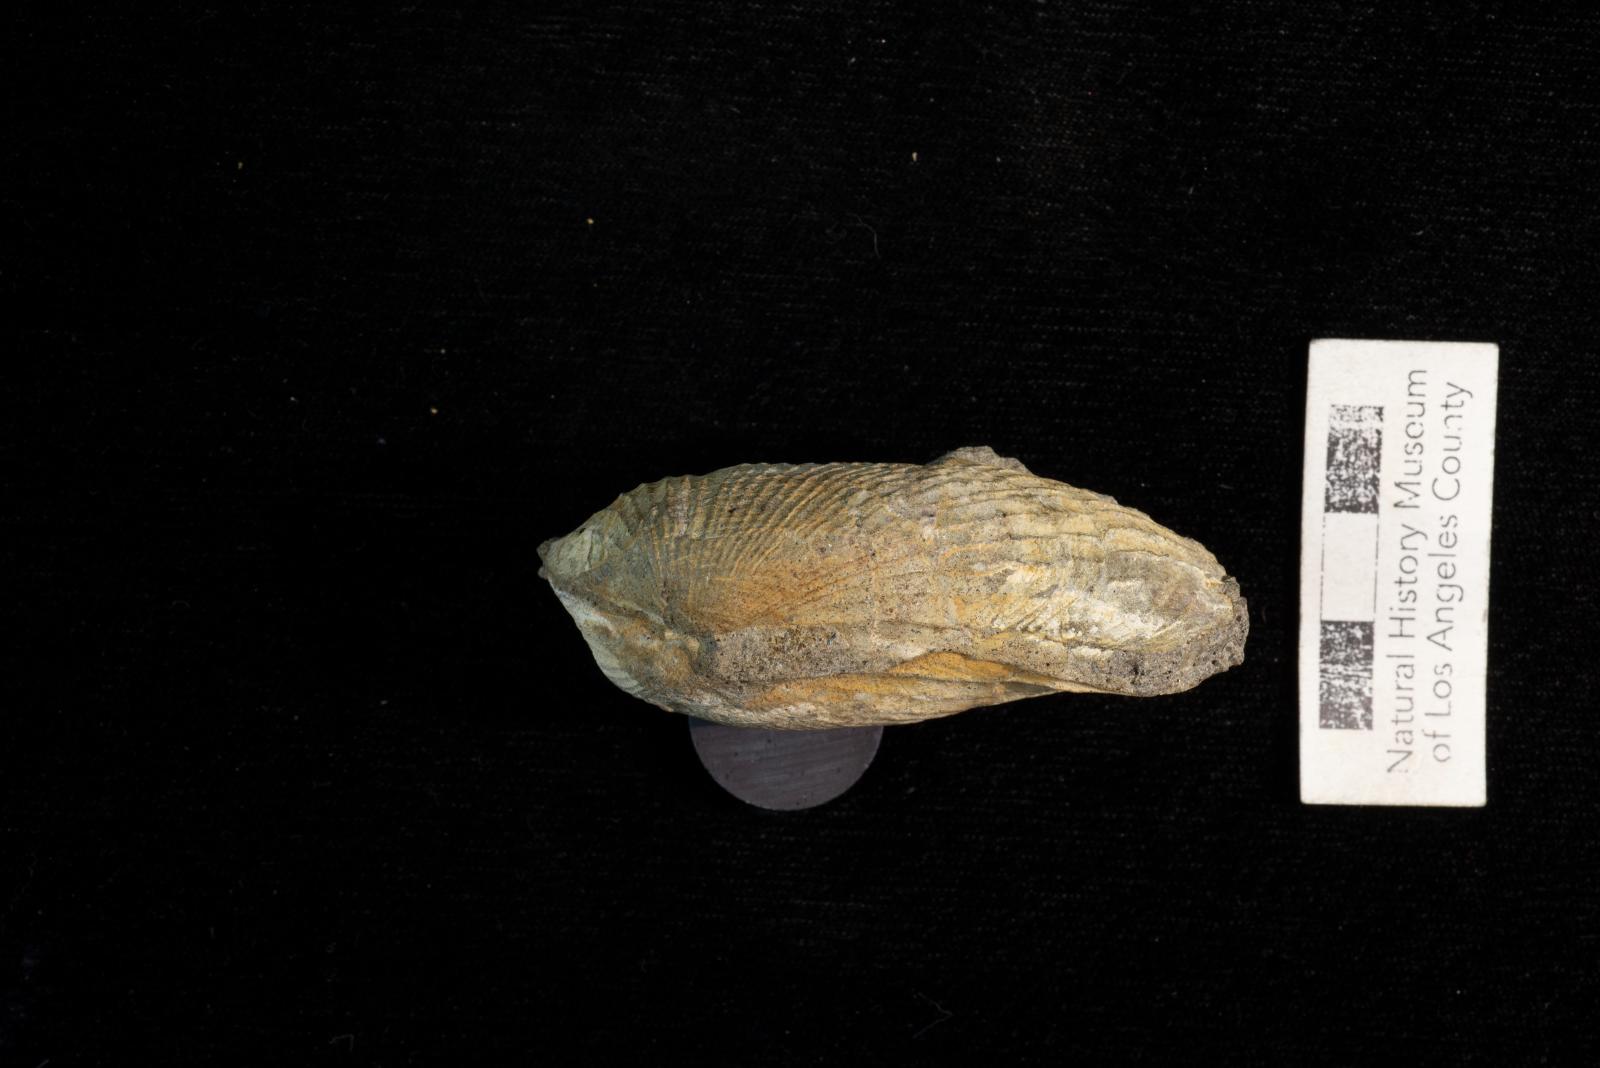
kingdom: Animalia
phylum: Mollusca
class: Bivalvia
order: Arcida
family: Parallelodontidae
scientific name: Parallelodontidae
